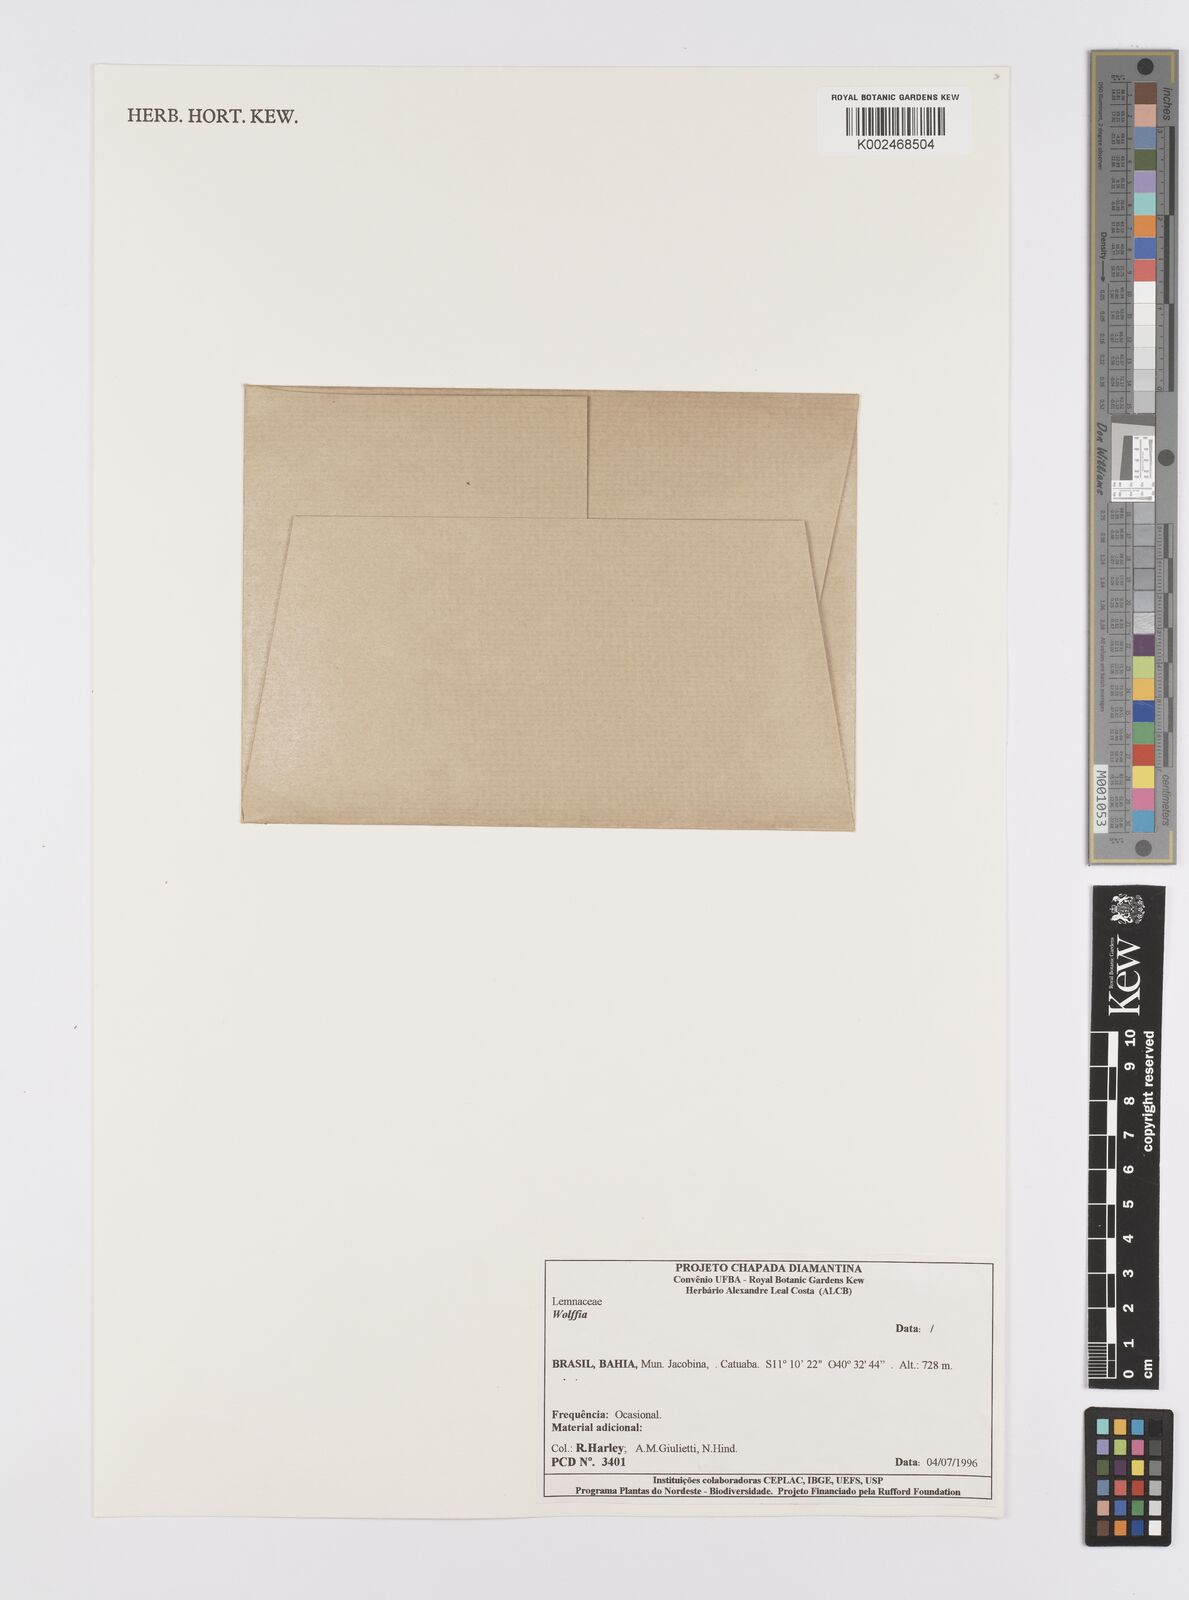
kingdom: Plantae
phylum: Tracheophyta
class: Liliopsida
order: Alismatales
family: Araceae
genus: Wolffia
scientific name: Wolffia
